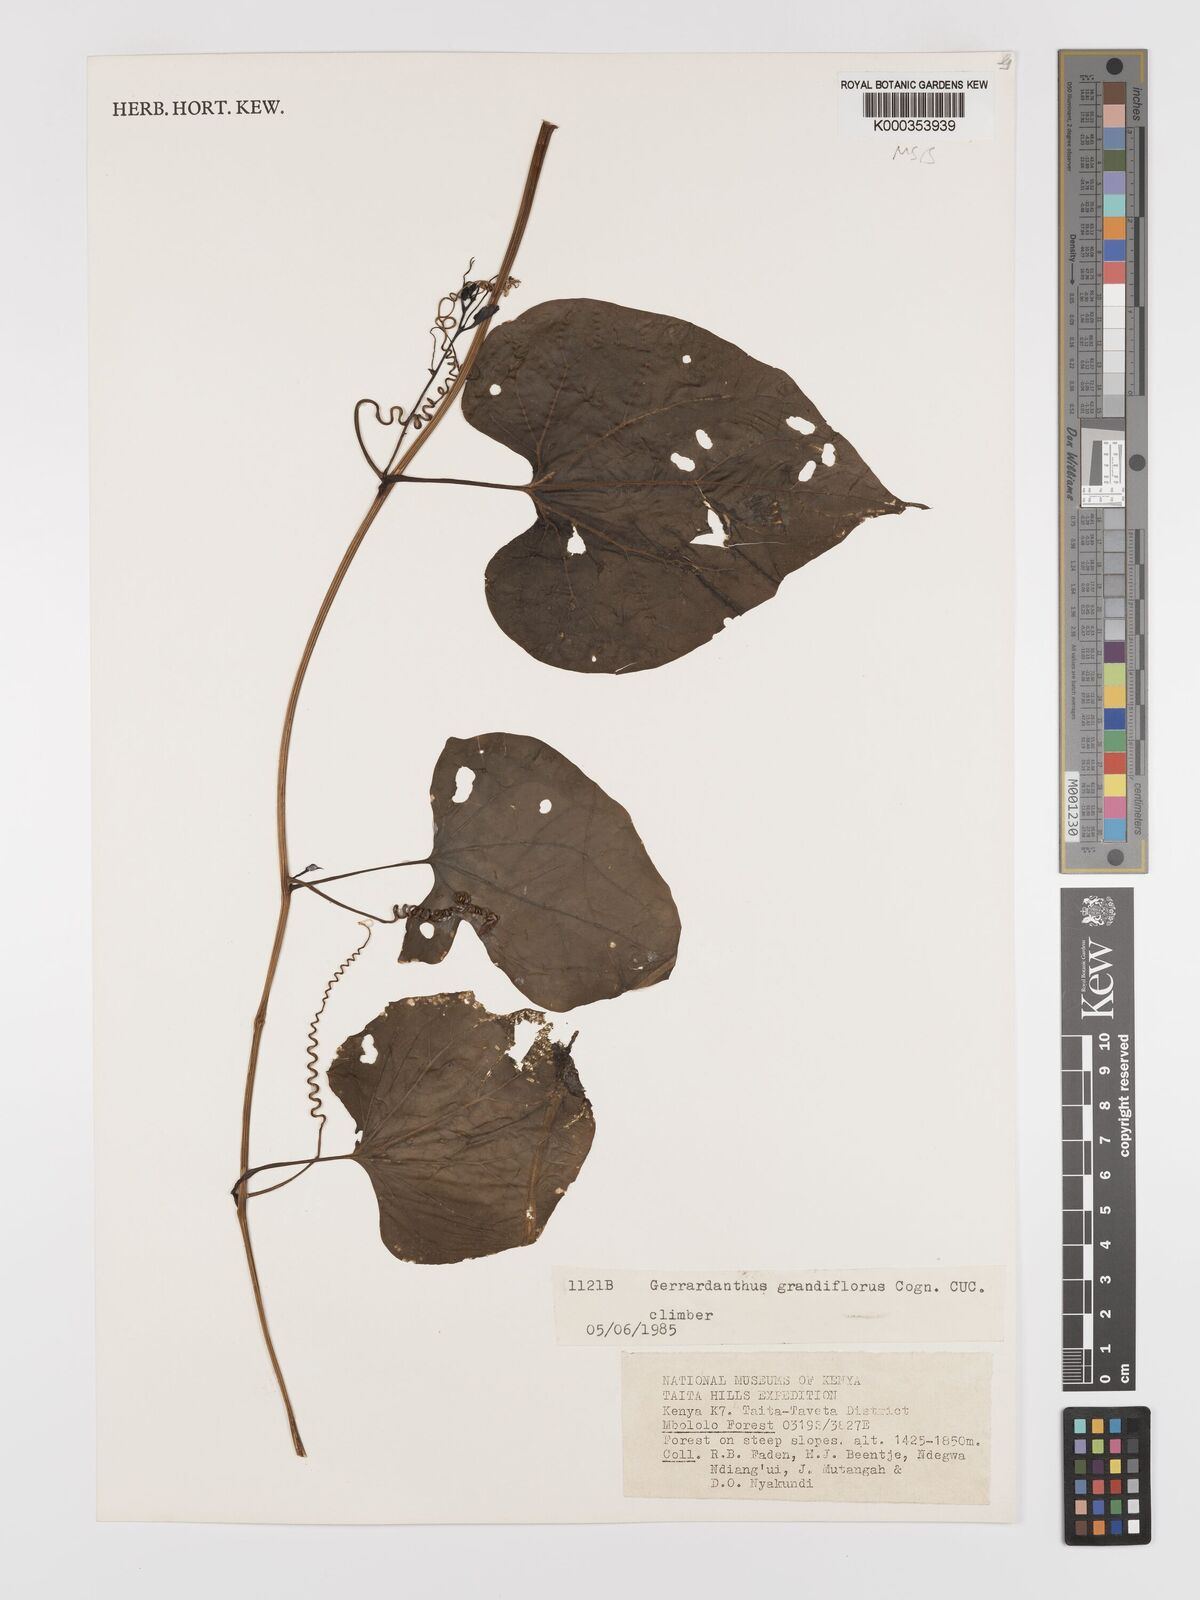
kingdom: Plantae
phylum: Tracheophyta
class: Magnoliopsida
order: Cucurbitales
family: Cucurbitaceae
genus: Gerrardanthus
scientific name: Gerrardanthus
